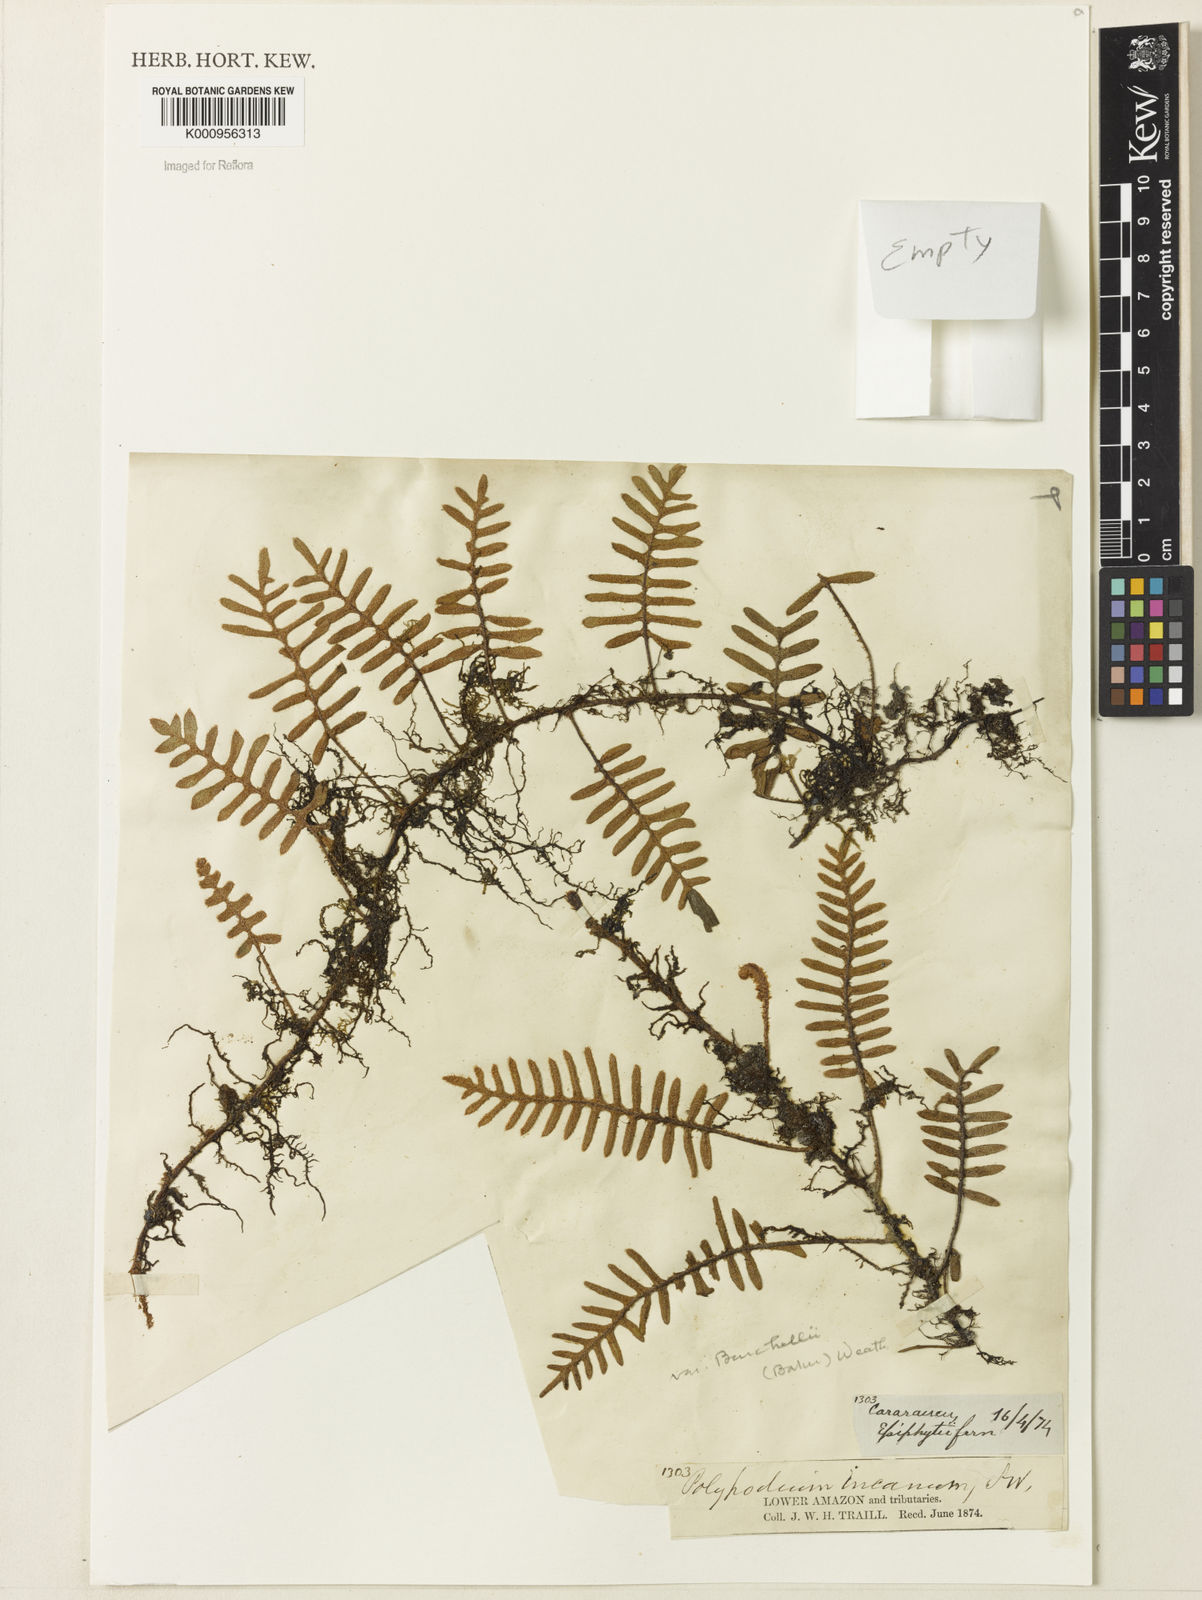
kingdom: Plantae
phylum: Tracheophyta
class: Polypodiopsida
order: Polypodiales
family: Polypodiaceae
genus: Pleopeltis
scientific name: Pleopeltis burchellii
